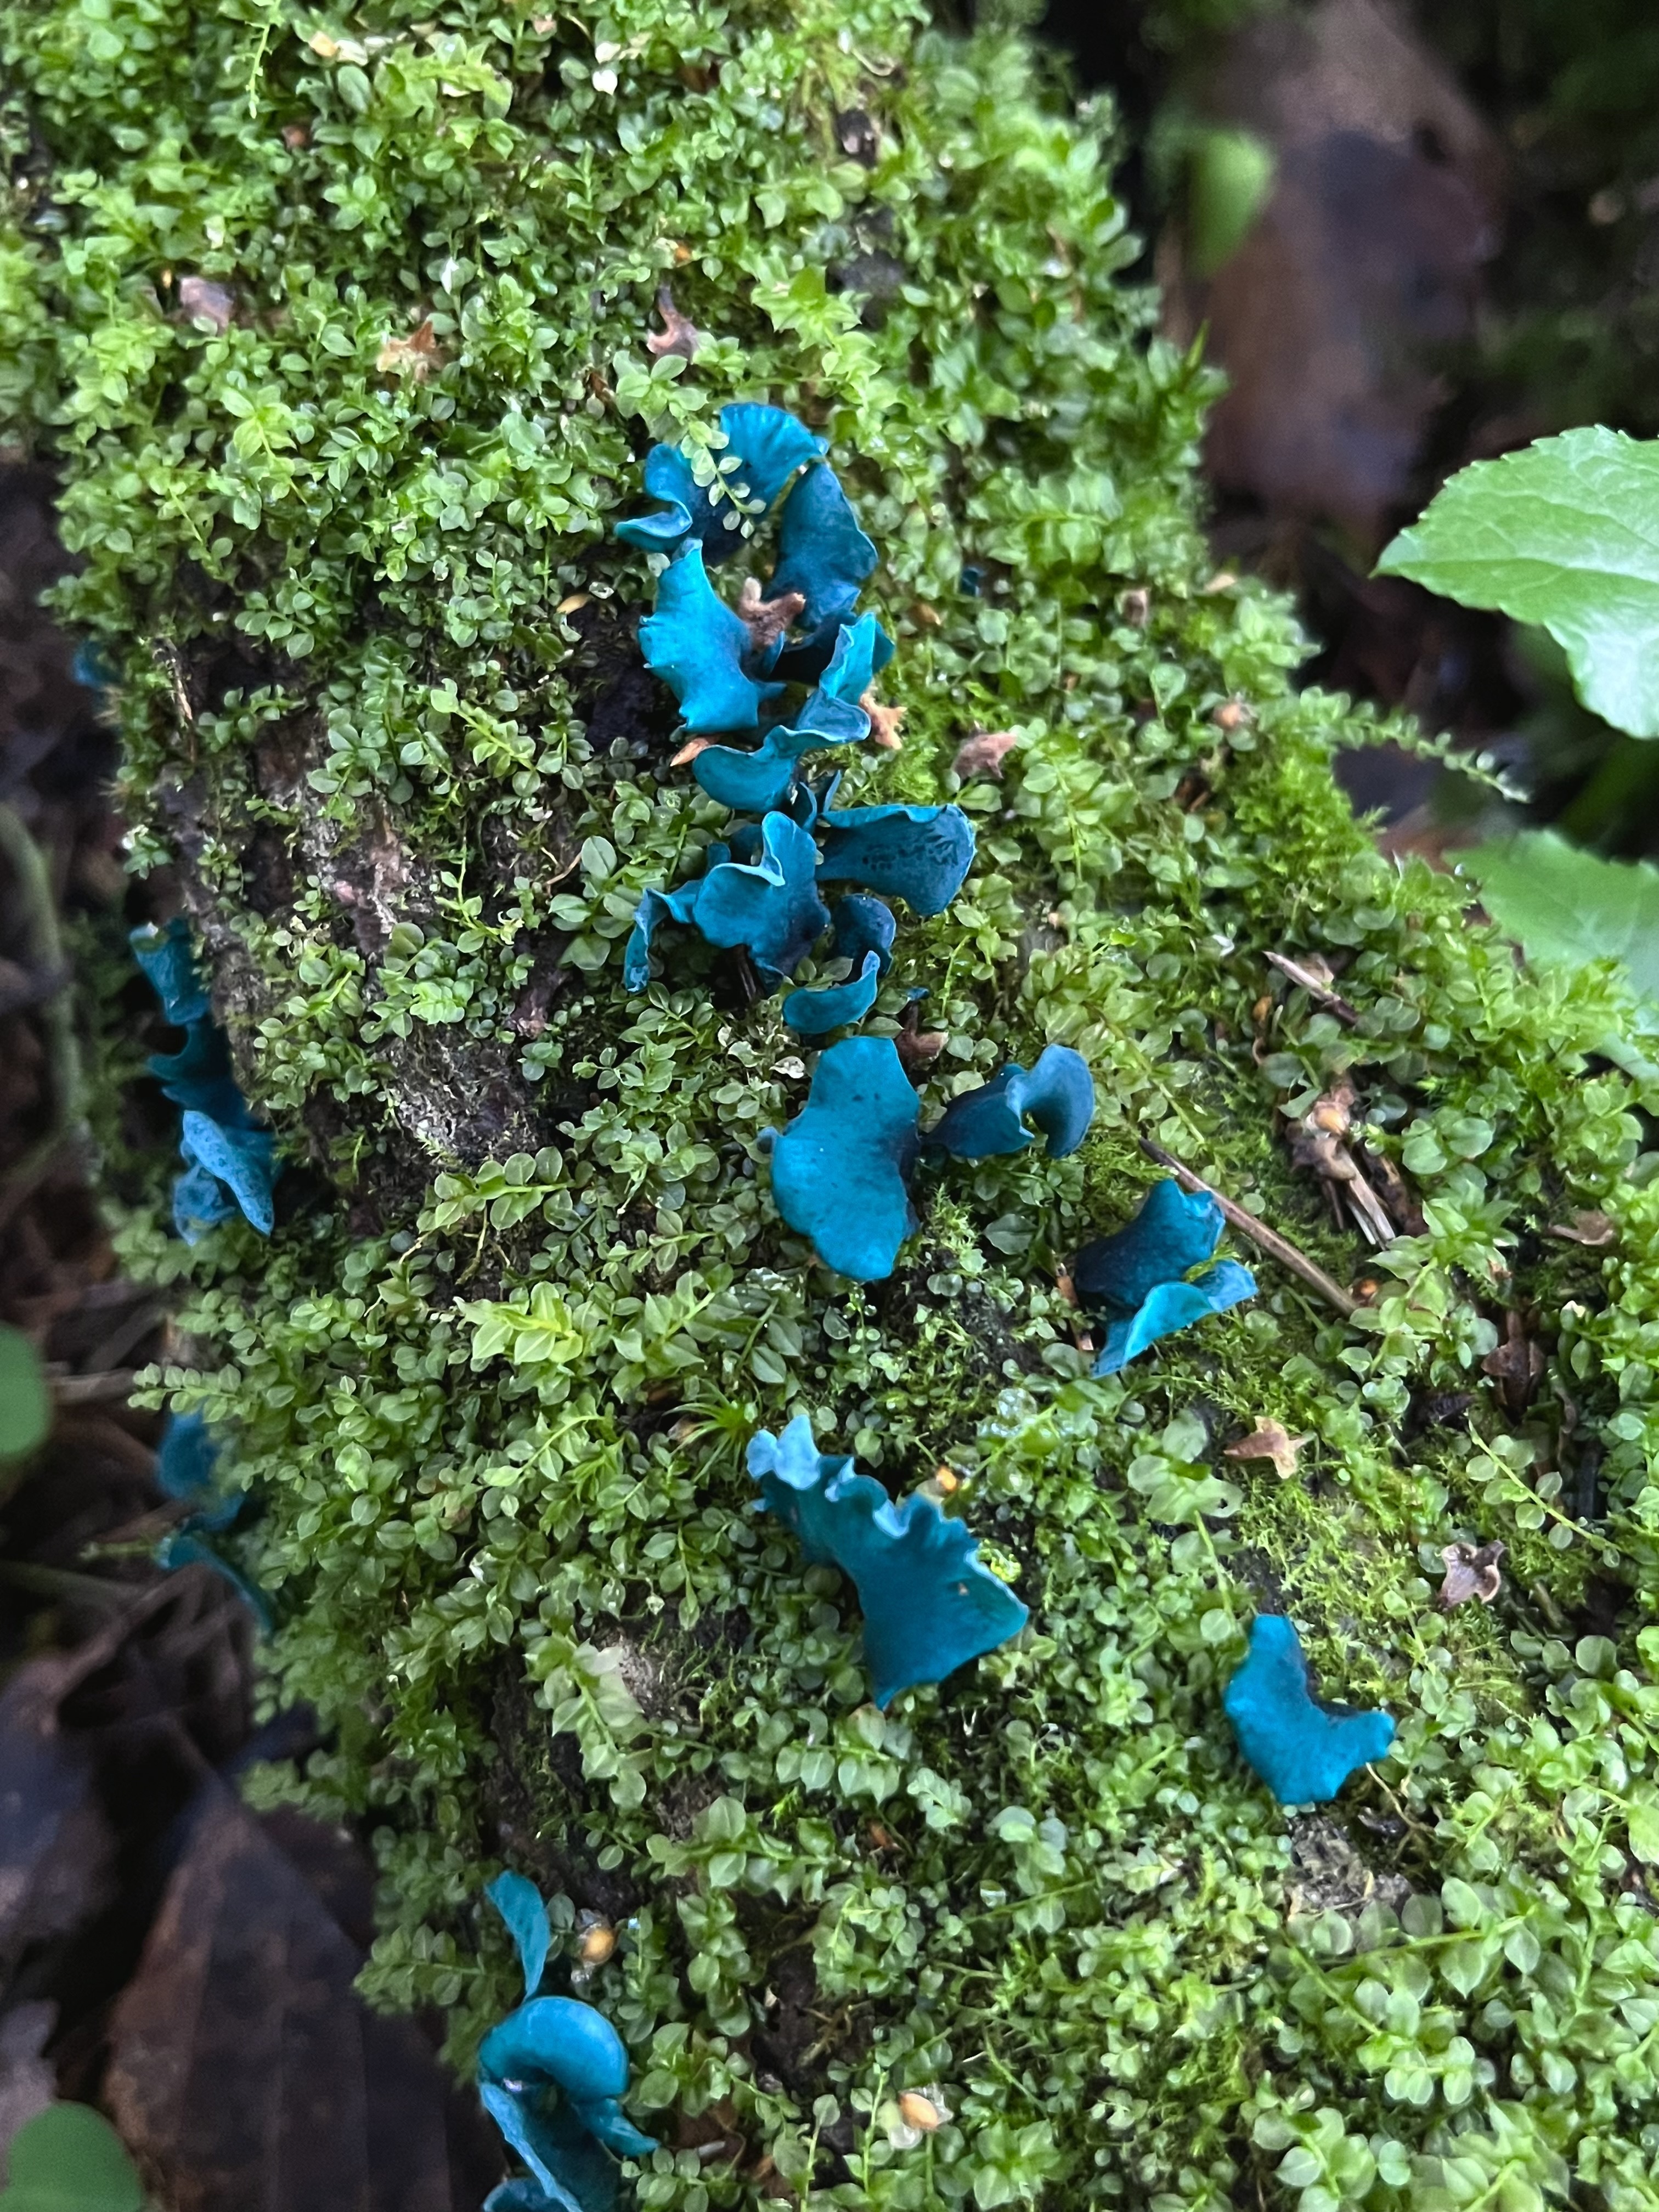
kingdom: Fungi
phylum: Ascomycota
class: Leotiomycetes
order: Helotiales
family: Chlorociboriaceae
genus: Chlorociboria
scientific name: Chlorociboria aeruginascens
